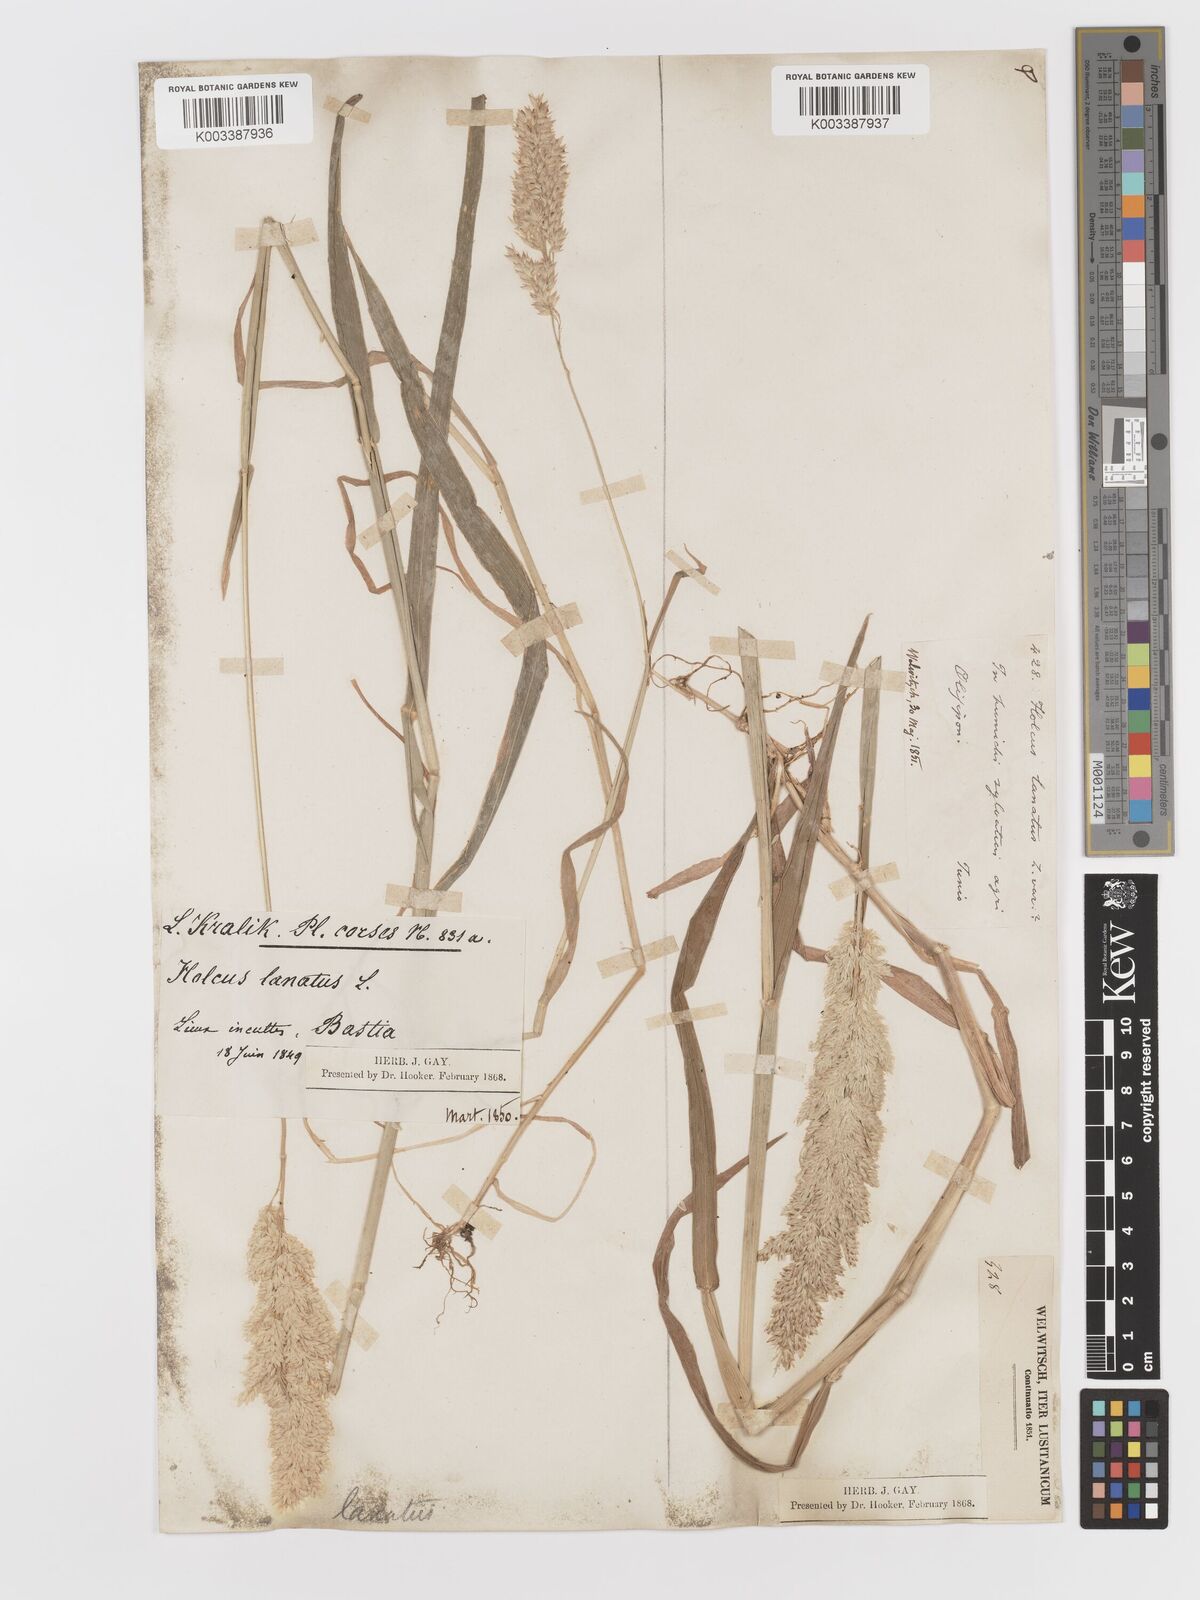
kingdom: Plantae
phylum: Tracheophyta
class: Liliopsida
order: Poales
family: Poaceae
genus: Holcus
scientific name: Holcus lanatus
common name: Yorkshire-fog
